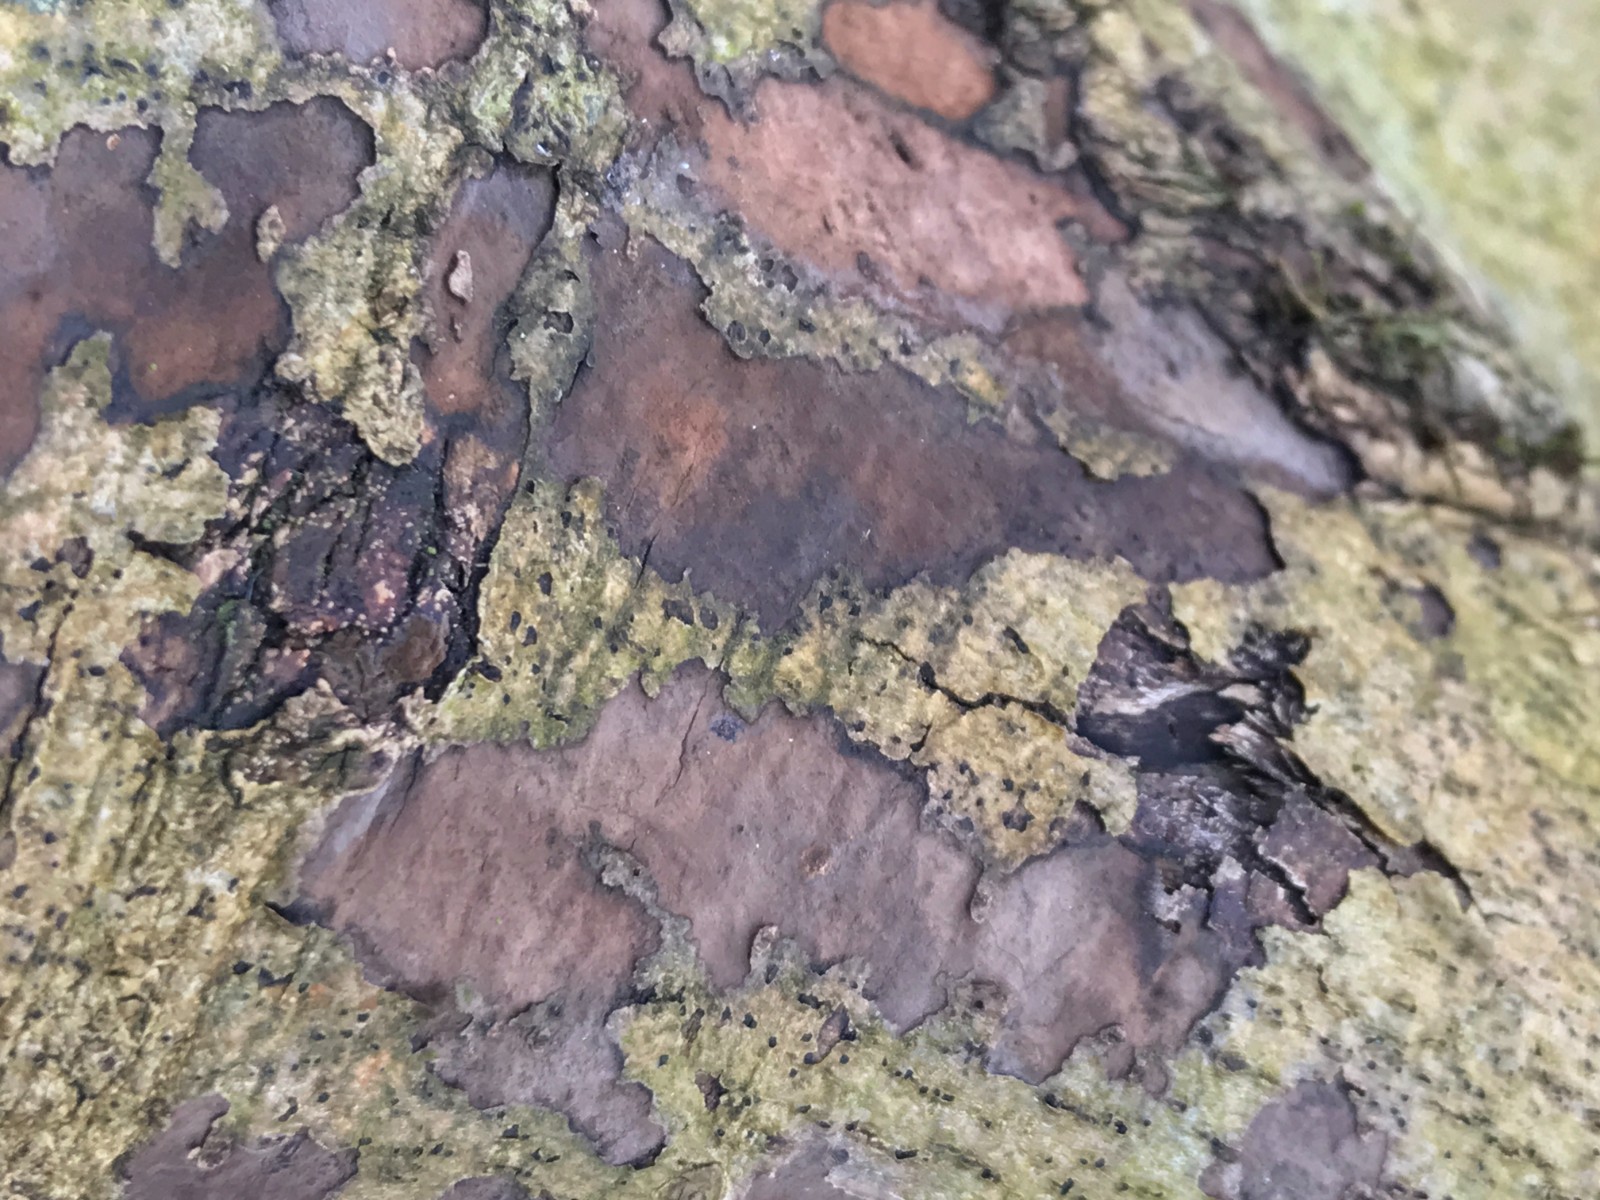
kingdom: Fungi
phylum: Ascomycota
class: Sordariomycetes
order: Xylariales
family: Hypoxylaceae
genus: Hypoxylon
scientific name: Hypoxylon petriniae
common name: nedsænket kulbær
